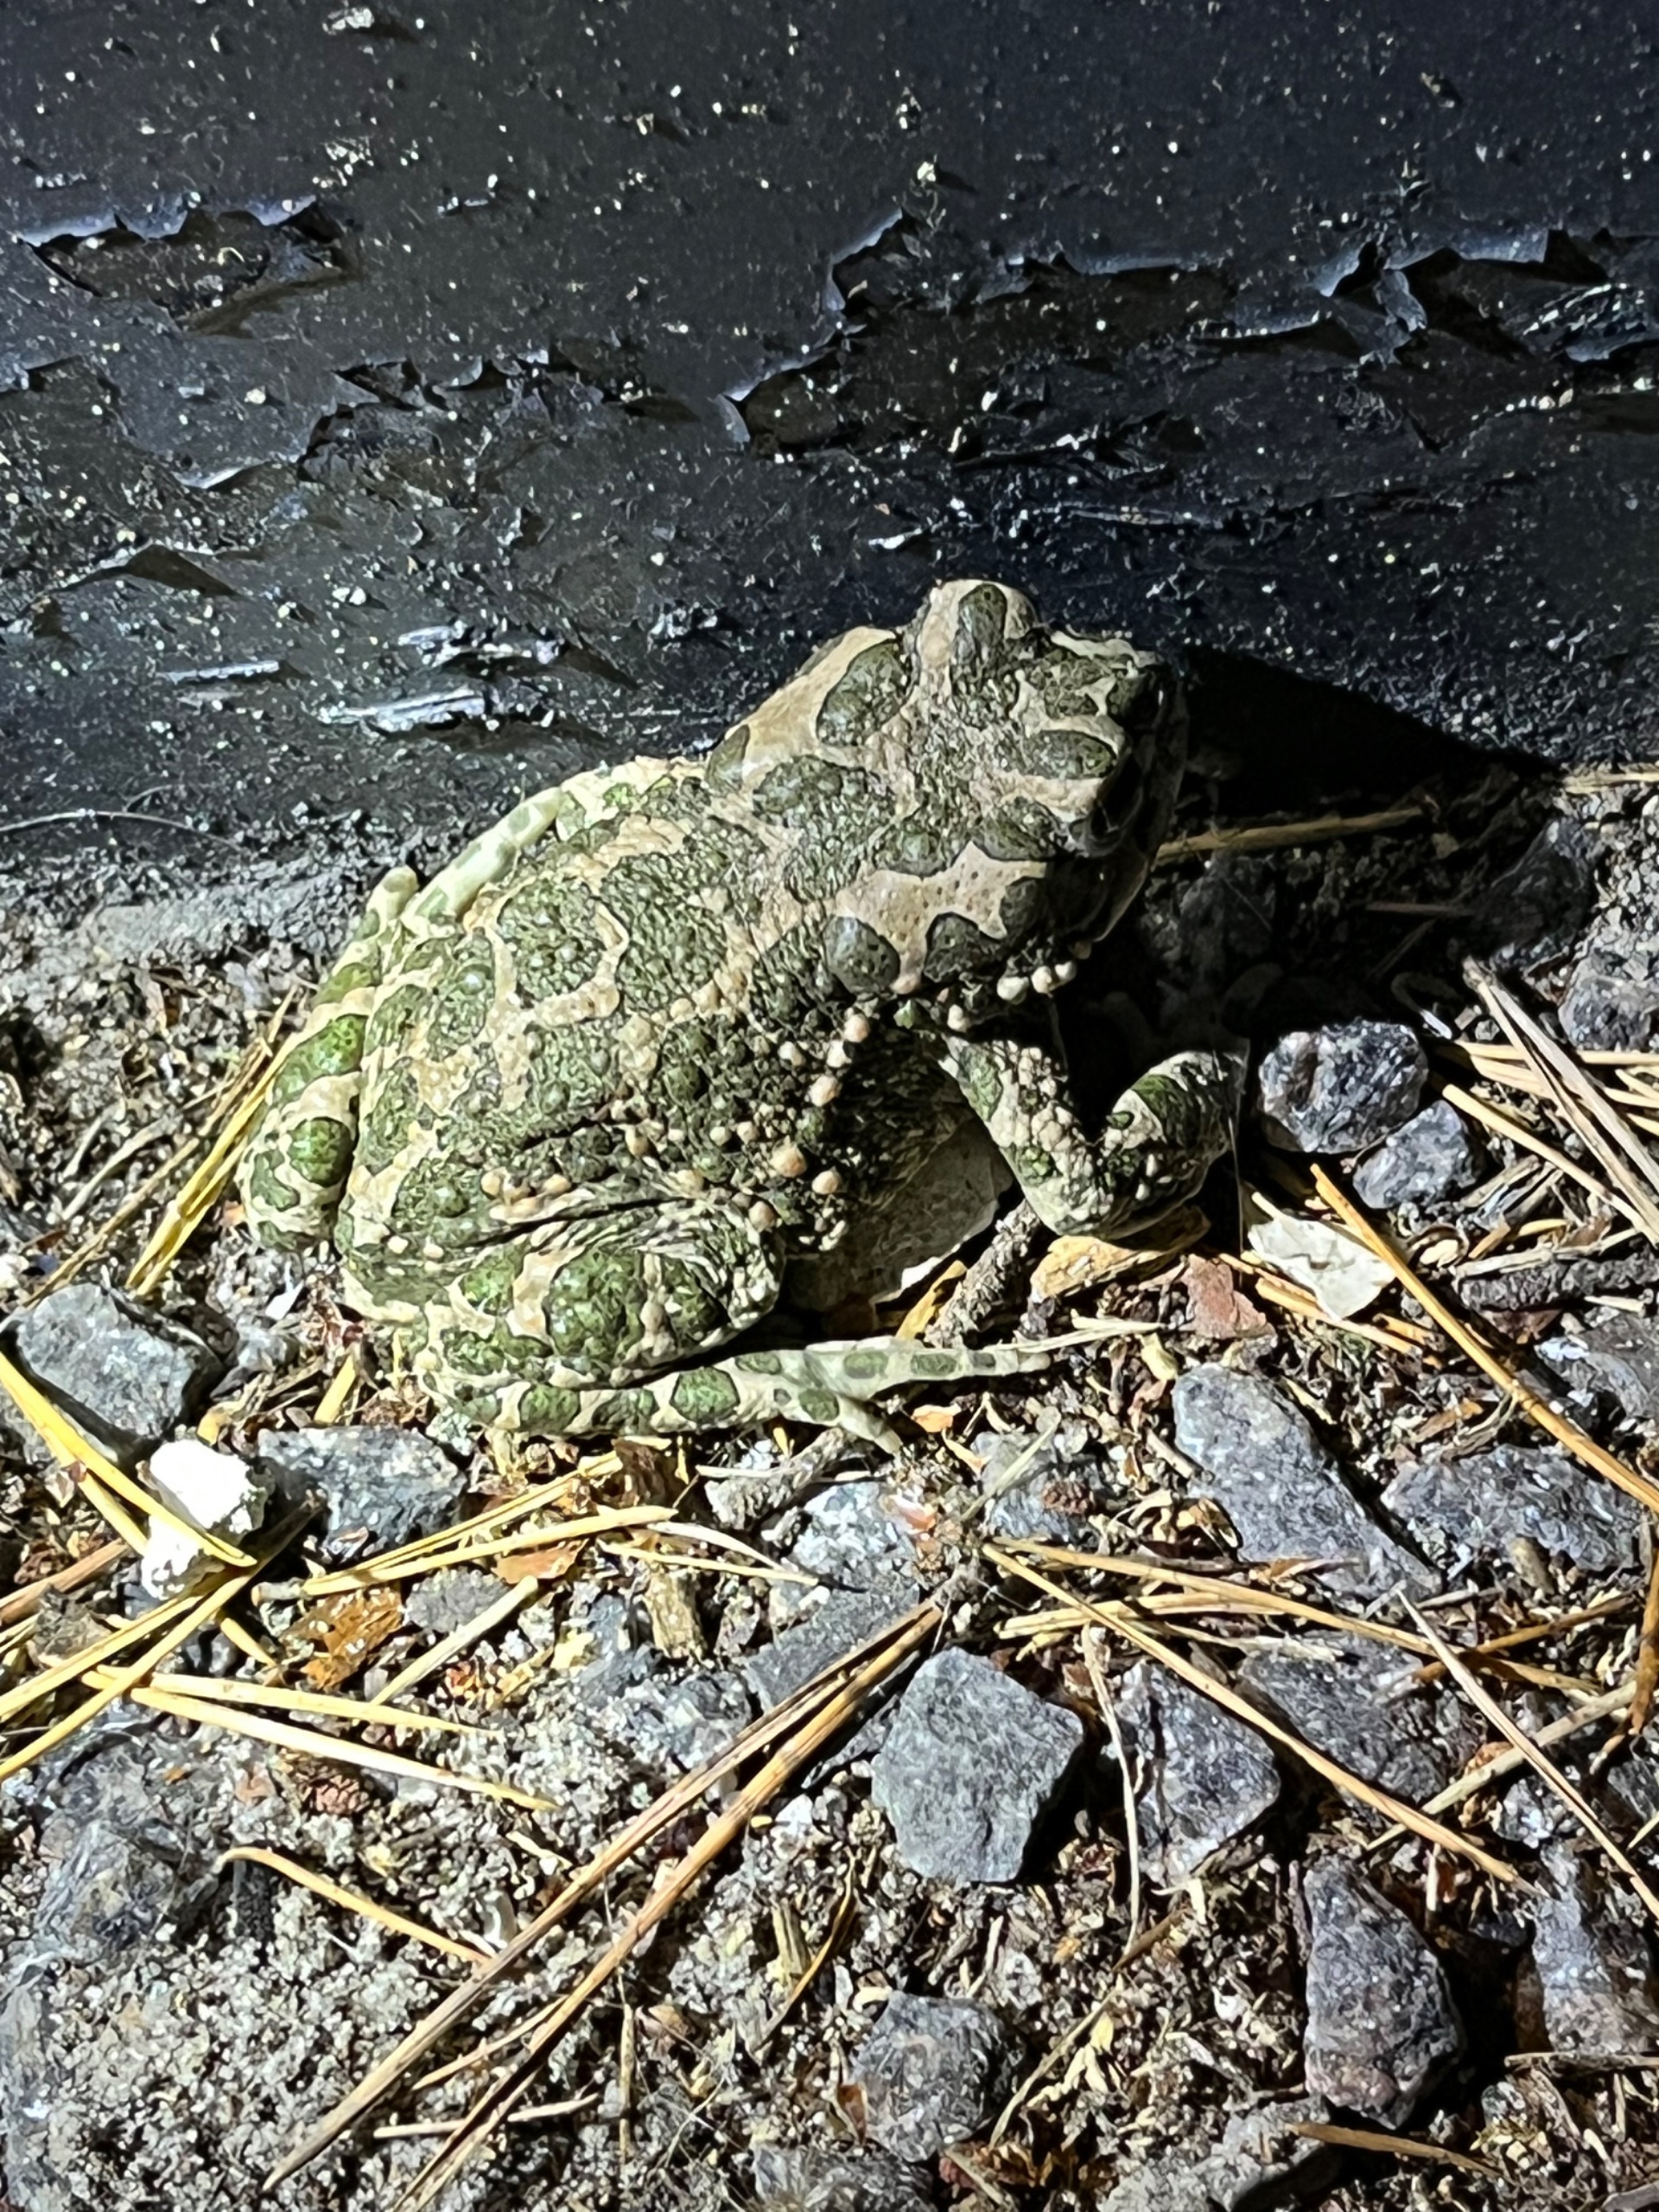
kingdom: Animalia
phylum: Chordata
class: Amphibia
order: Anura
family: Bufonidae
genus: Bufotes
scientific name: Bufotes viridis
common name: Grønbroget tudse
